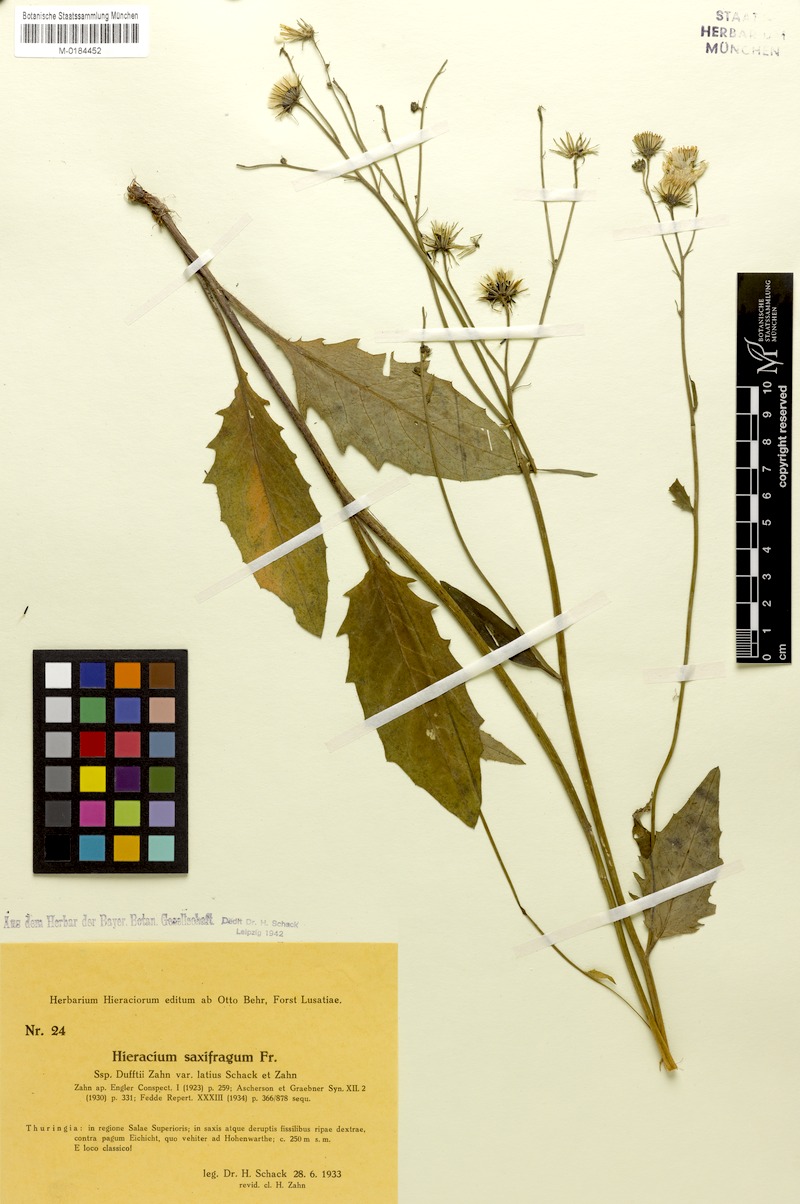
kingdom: Plantae
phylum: Tracheophyta
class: Magnoliopsida
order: Asterales
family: Asteraceae
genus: Hieracium
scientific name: Hieracium saxifragum
